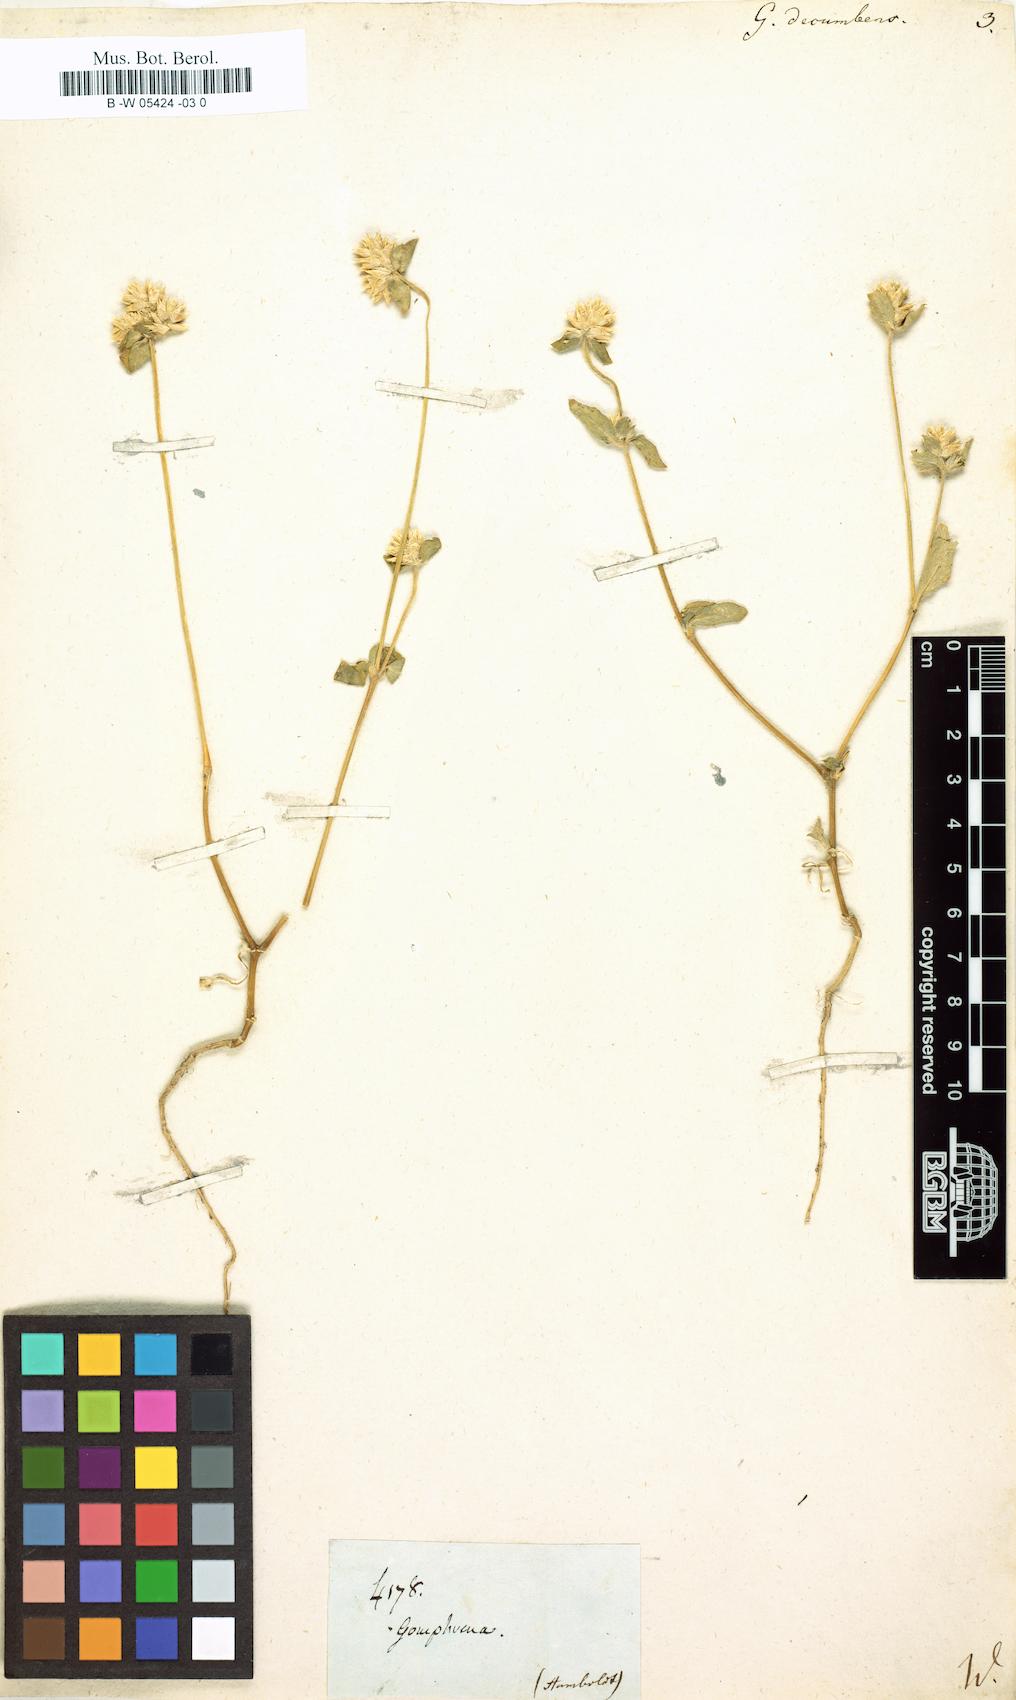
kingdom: Plantae
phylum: Tracheophyta
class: Magnoliopsida
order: Caryophyllales
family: Amaranthaceae
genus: Gomphrena
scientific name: Gomphrena
